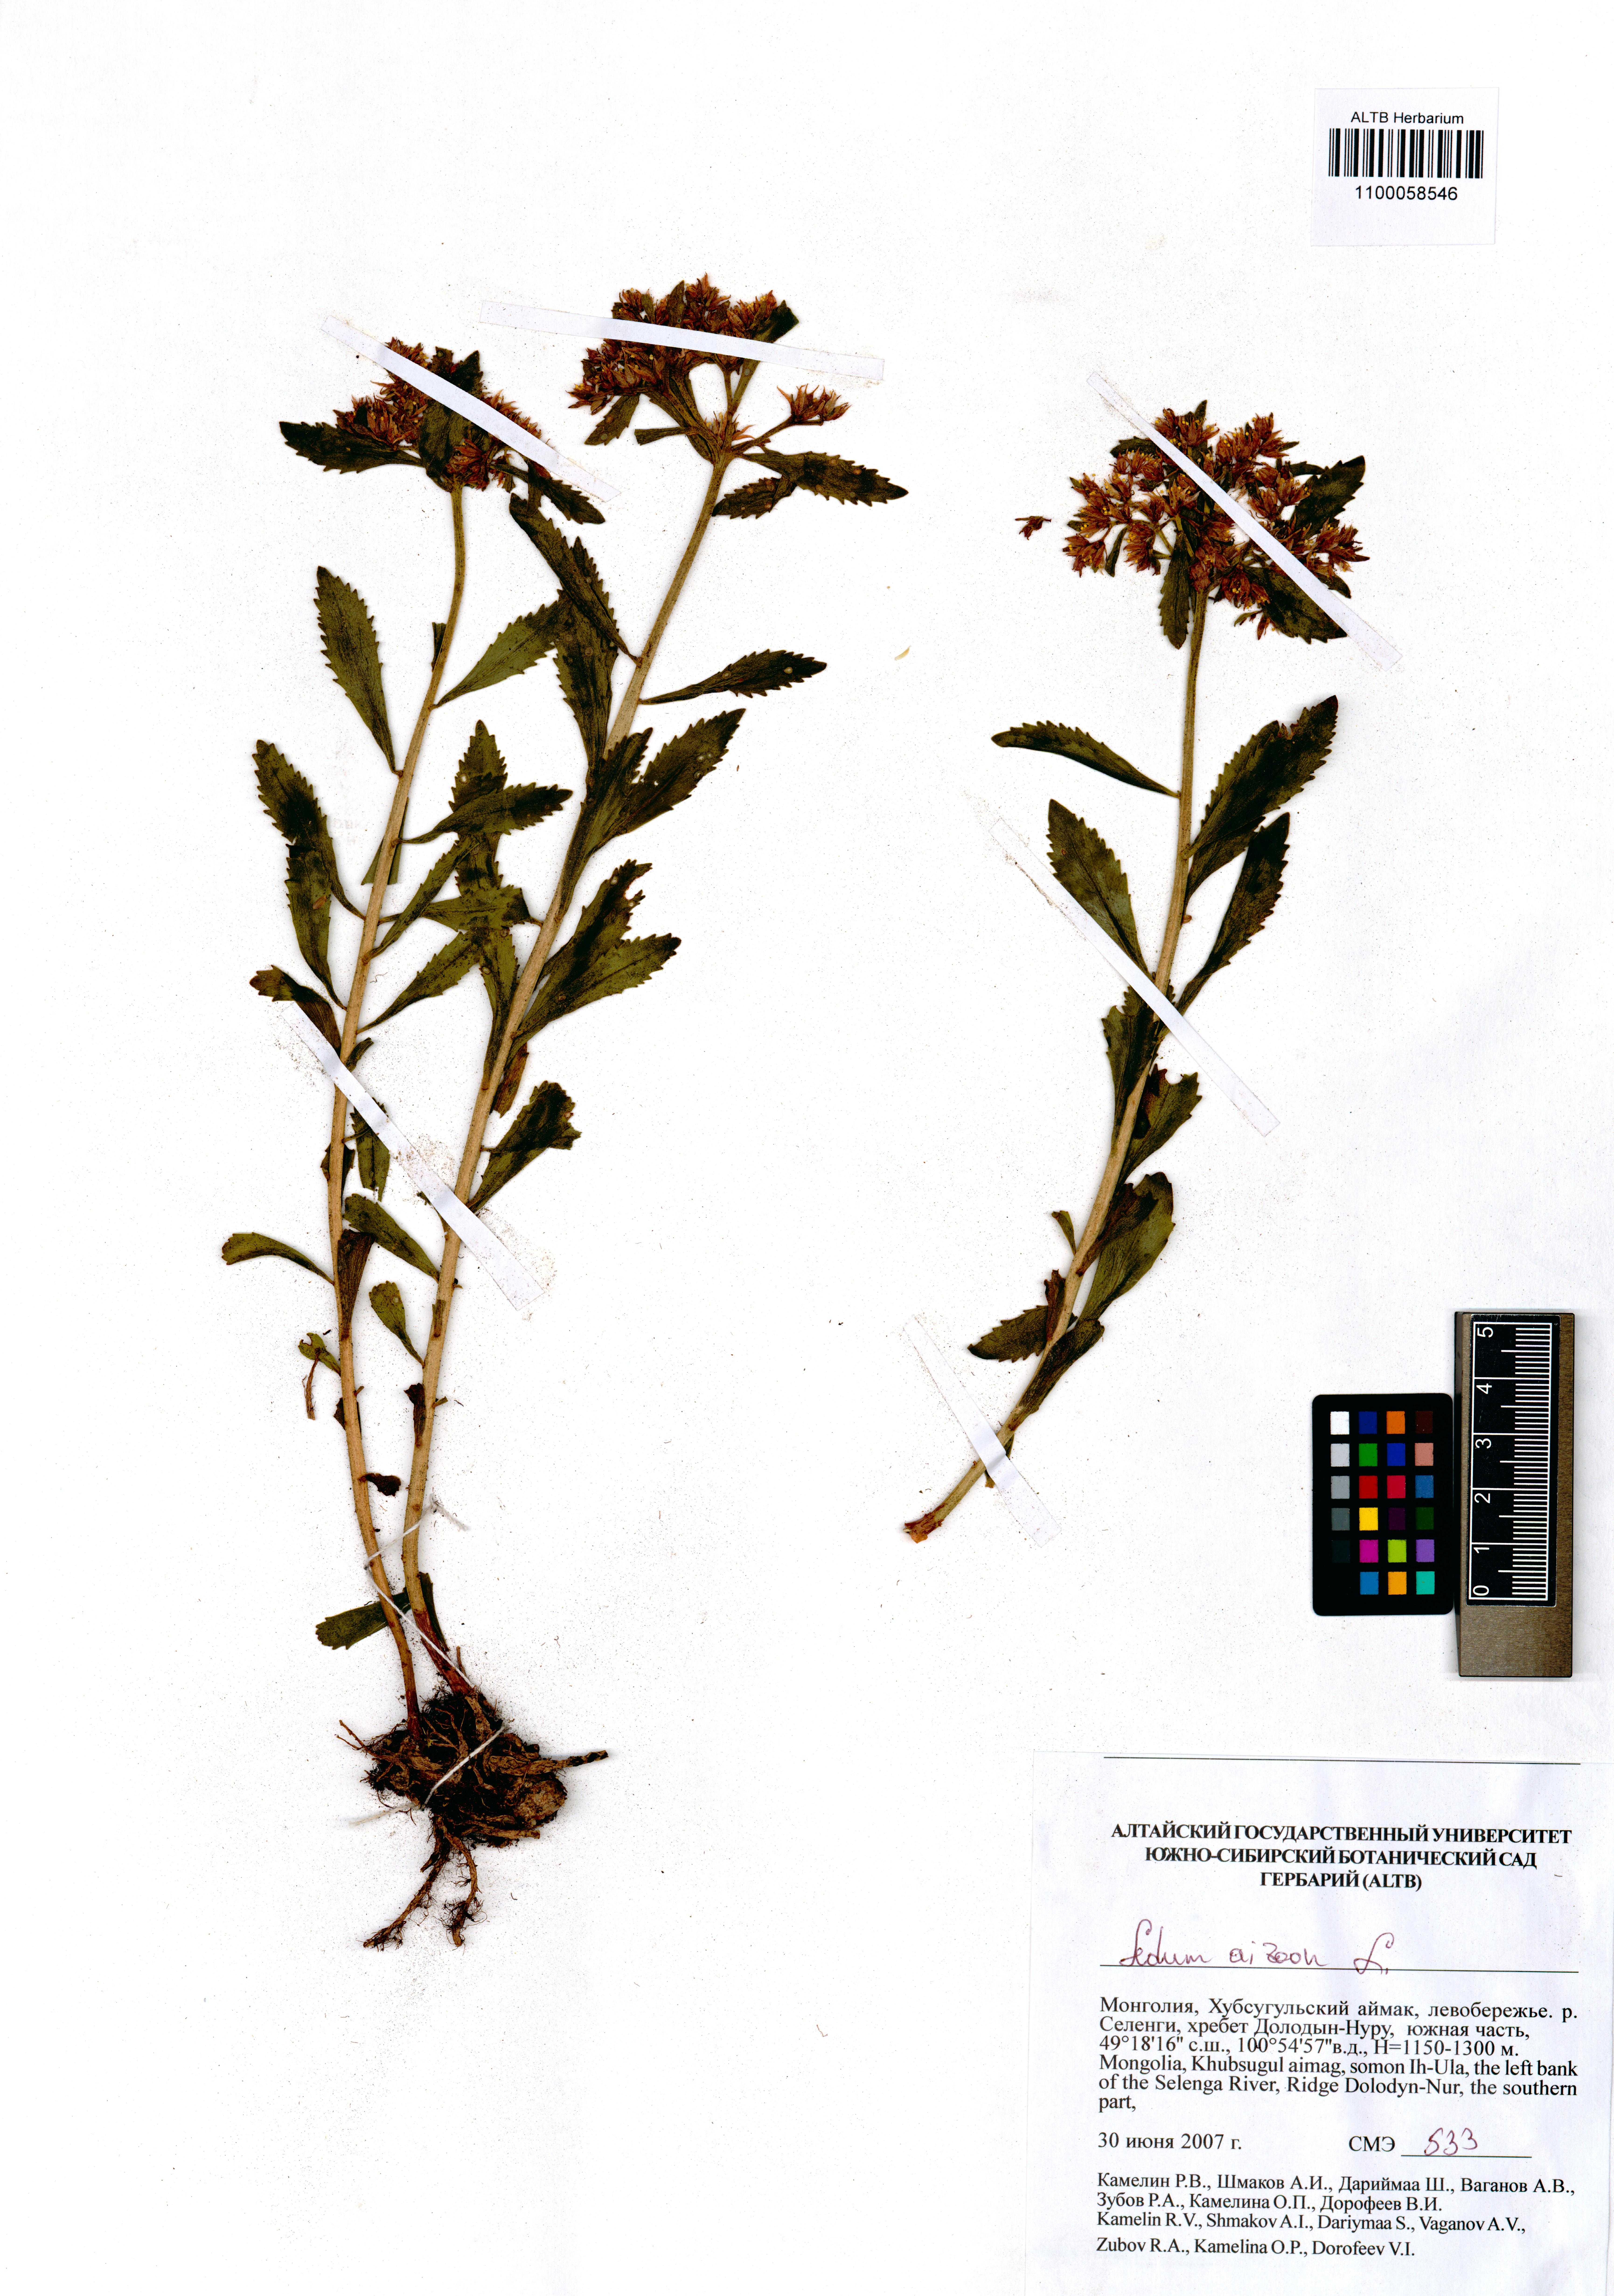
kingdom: Plantae
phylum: Tracheophyta
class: Magnoliopsida
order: Saxifragales
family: Crassulaceae
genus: Phedimus
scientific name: Phedimus aizoon
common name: Orpin aizoon
